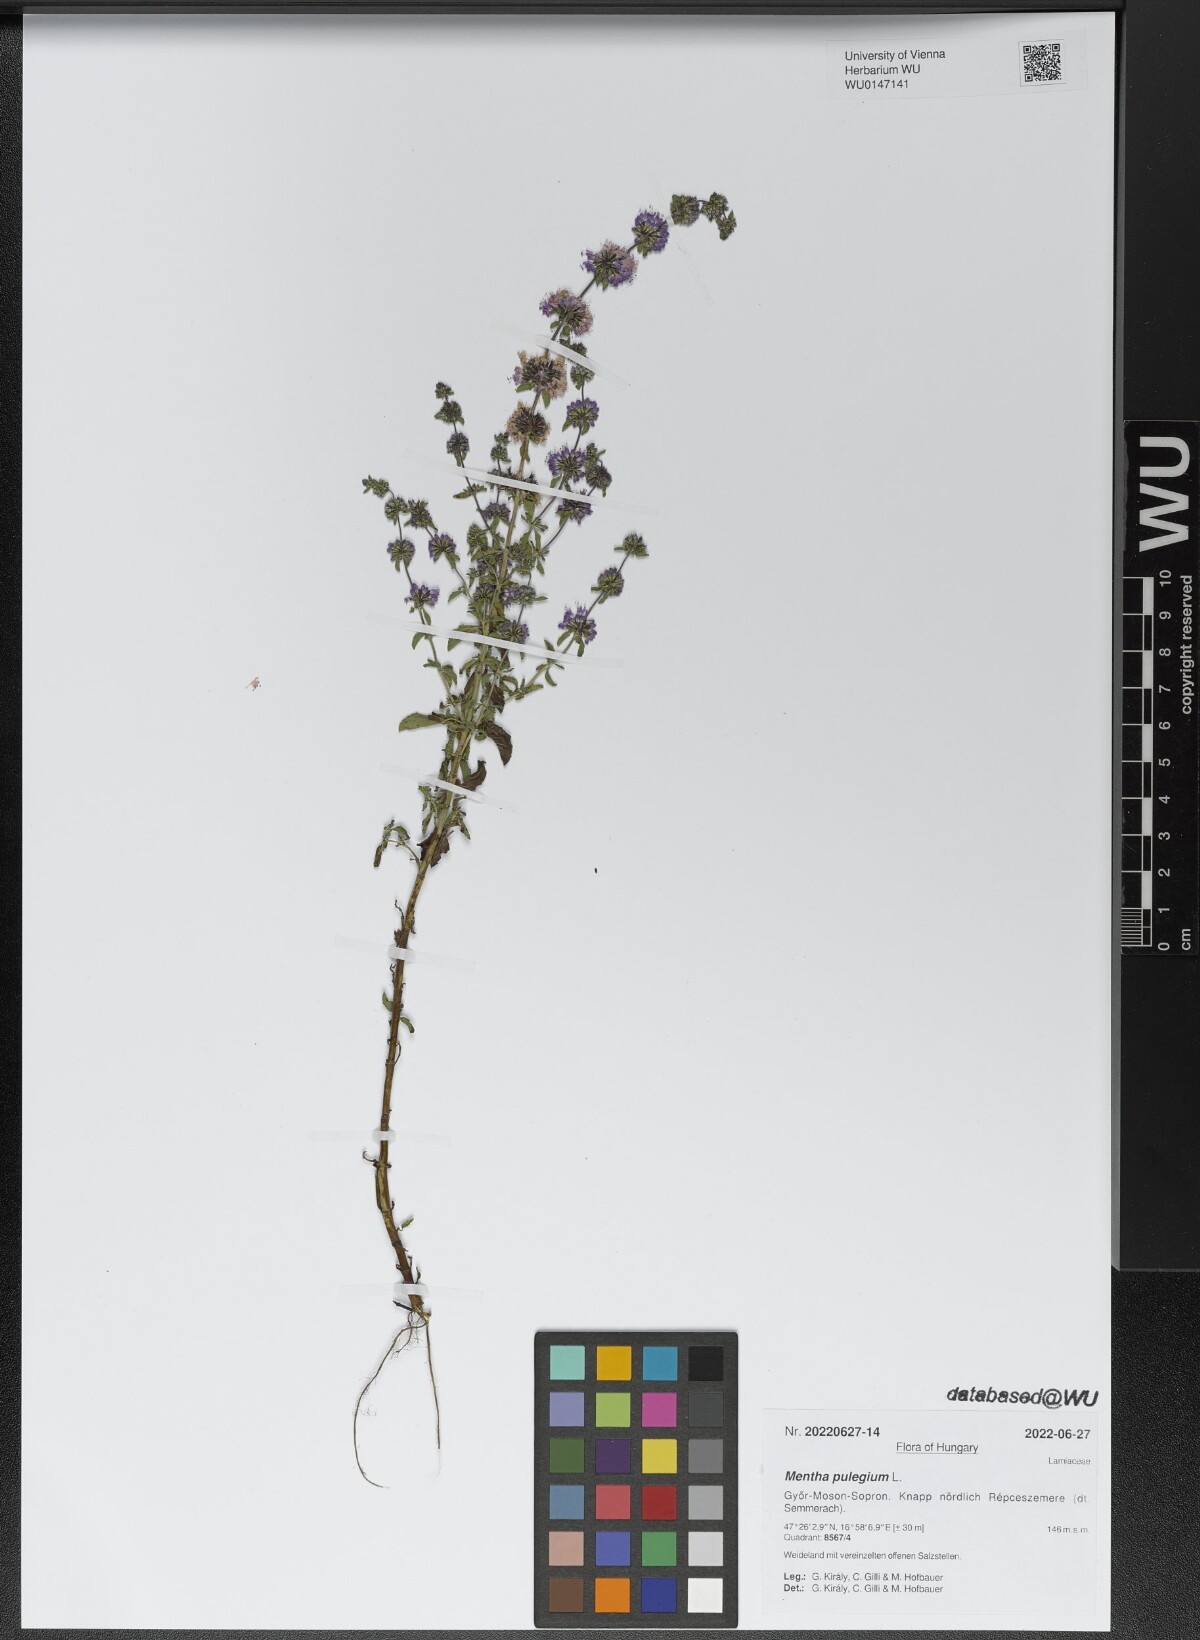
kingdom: Plantae
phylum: Tracheophyta
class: Magnoliopsida
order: Lamiales
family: Lamiaceae
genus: Mentha
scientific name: Mentha pulegium
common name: Pennyroyal
